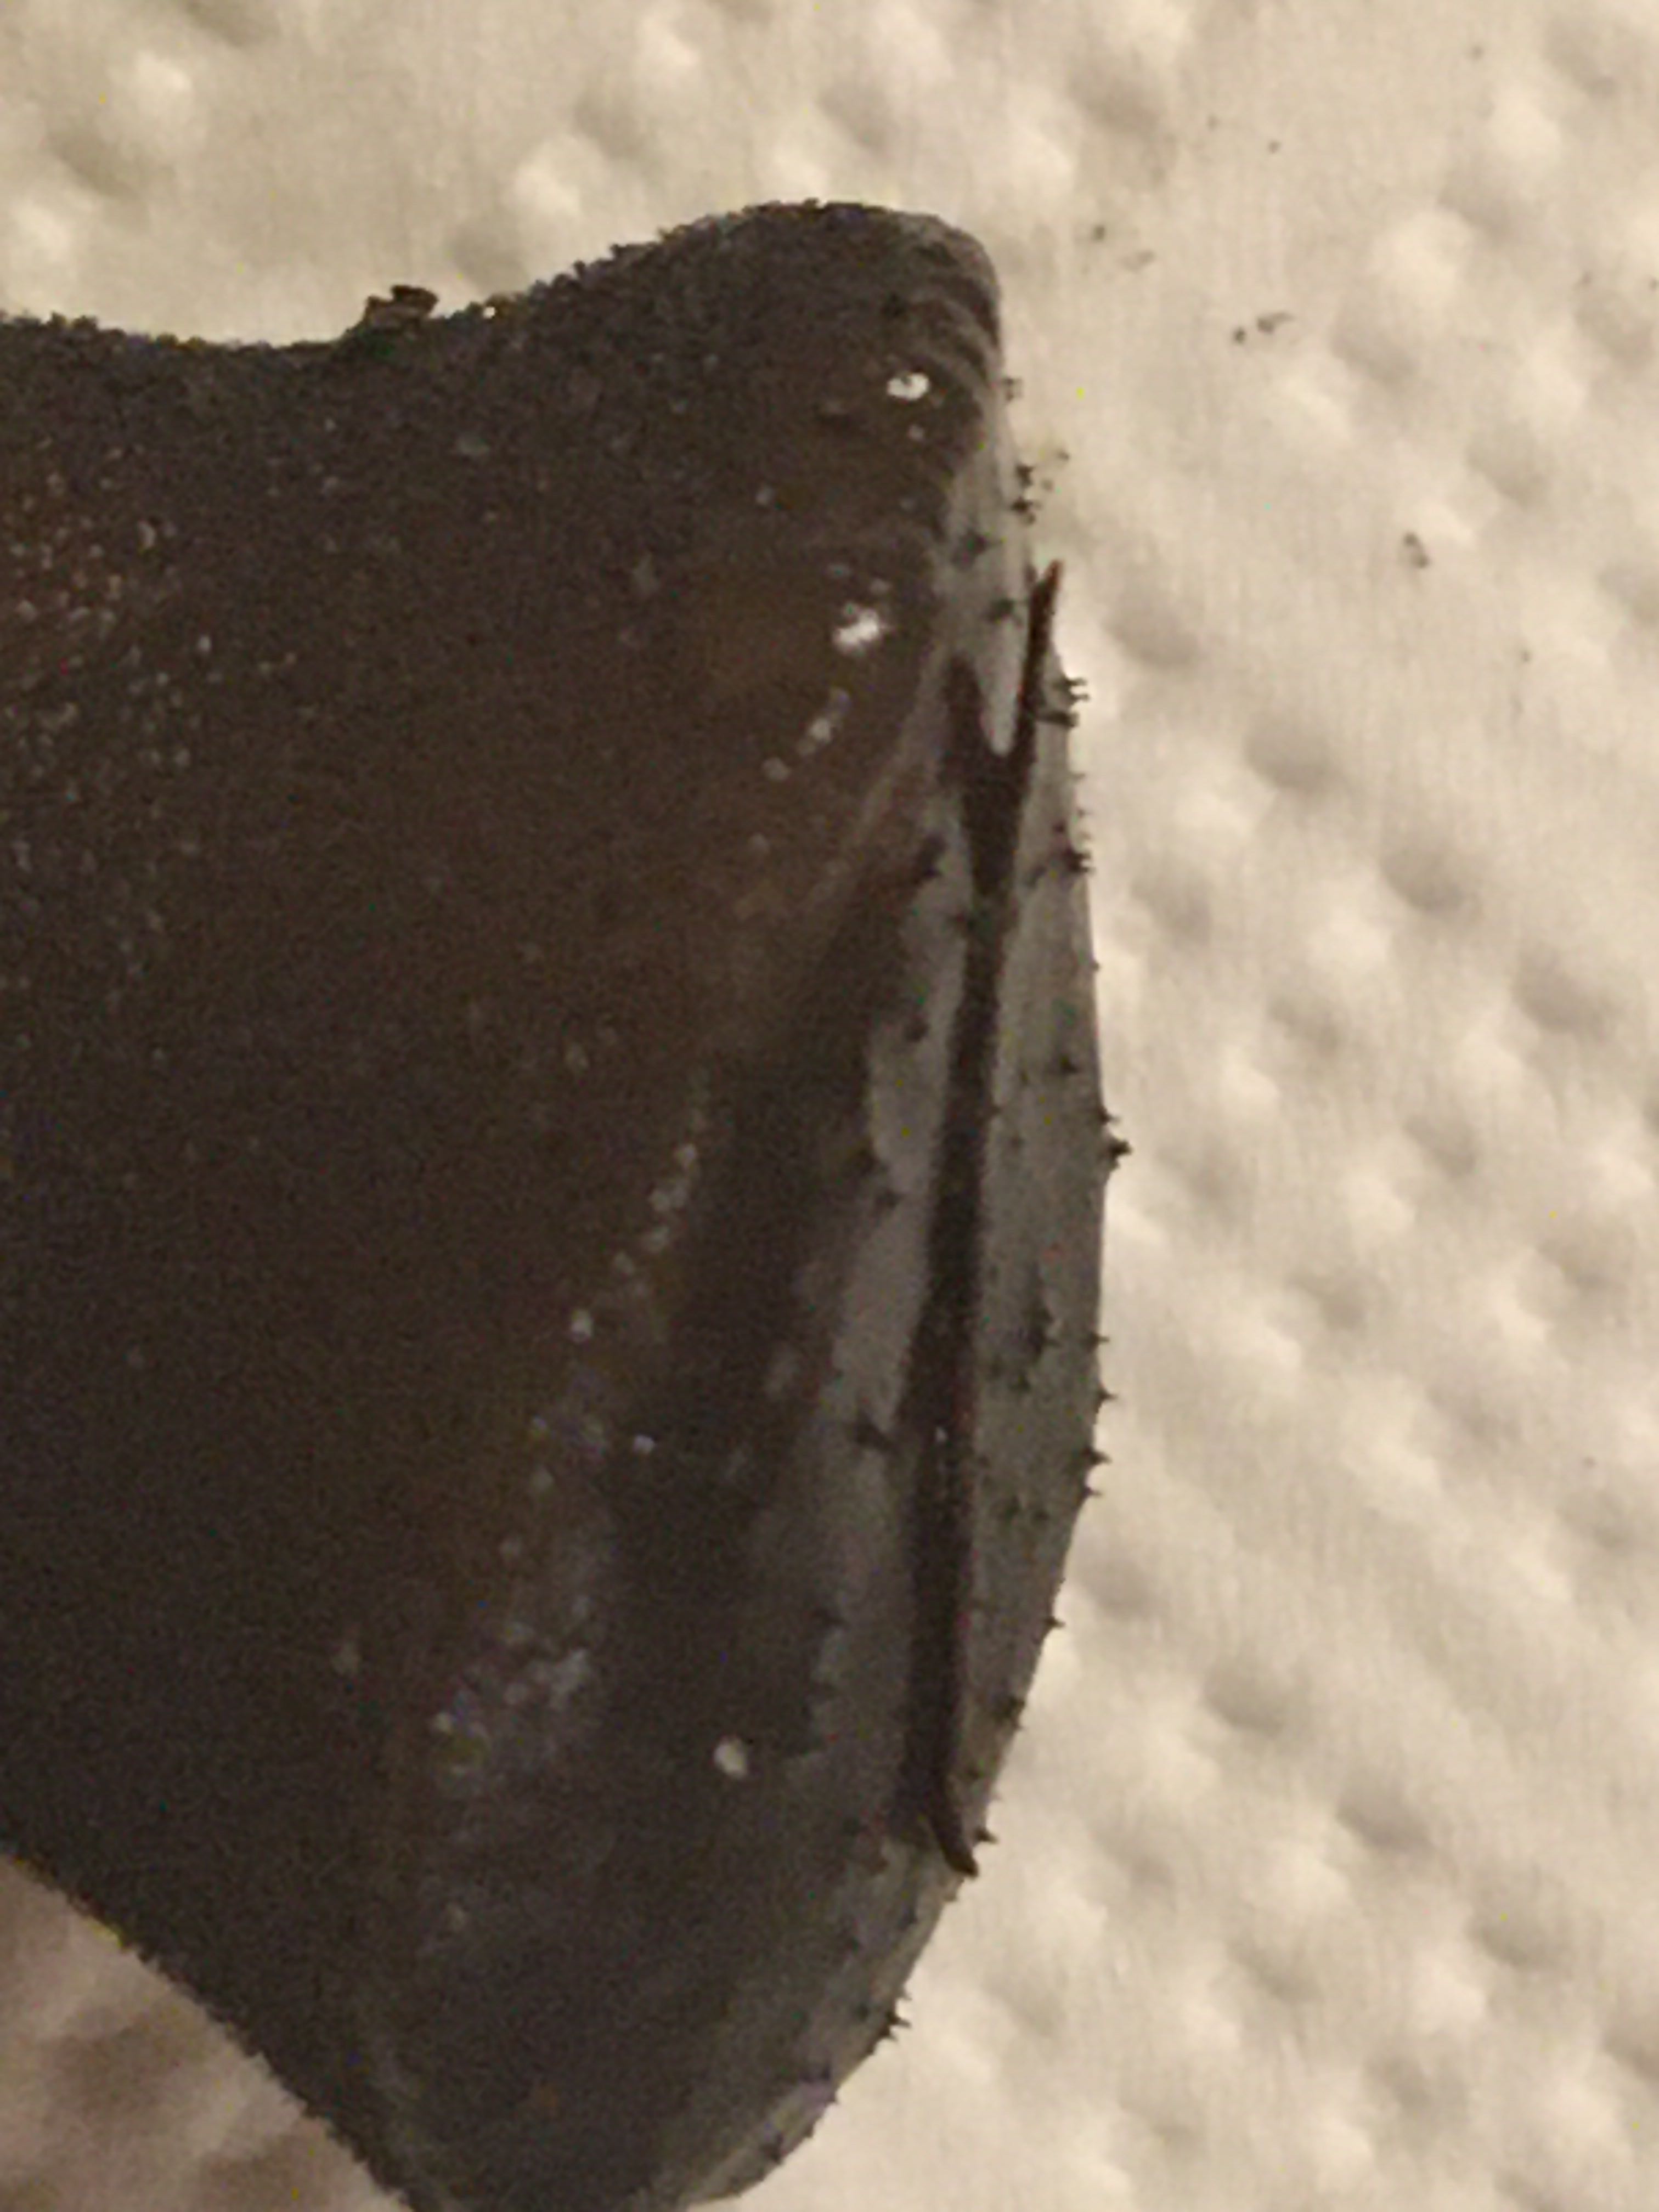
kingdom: Fungi
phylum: Basidiomycota
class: Agaricomycetes
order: Auriculariales
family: Auriculariaceae
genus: Exidia
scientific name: Exidia glandulosa
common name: ege-bævretop
